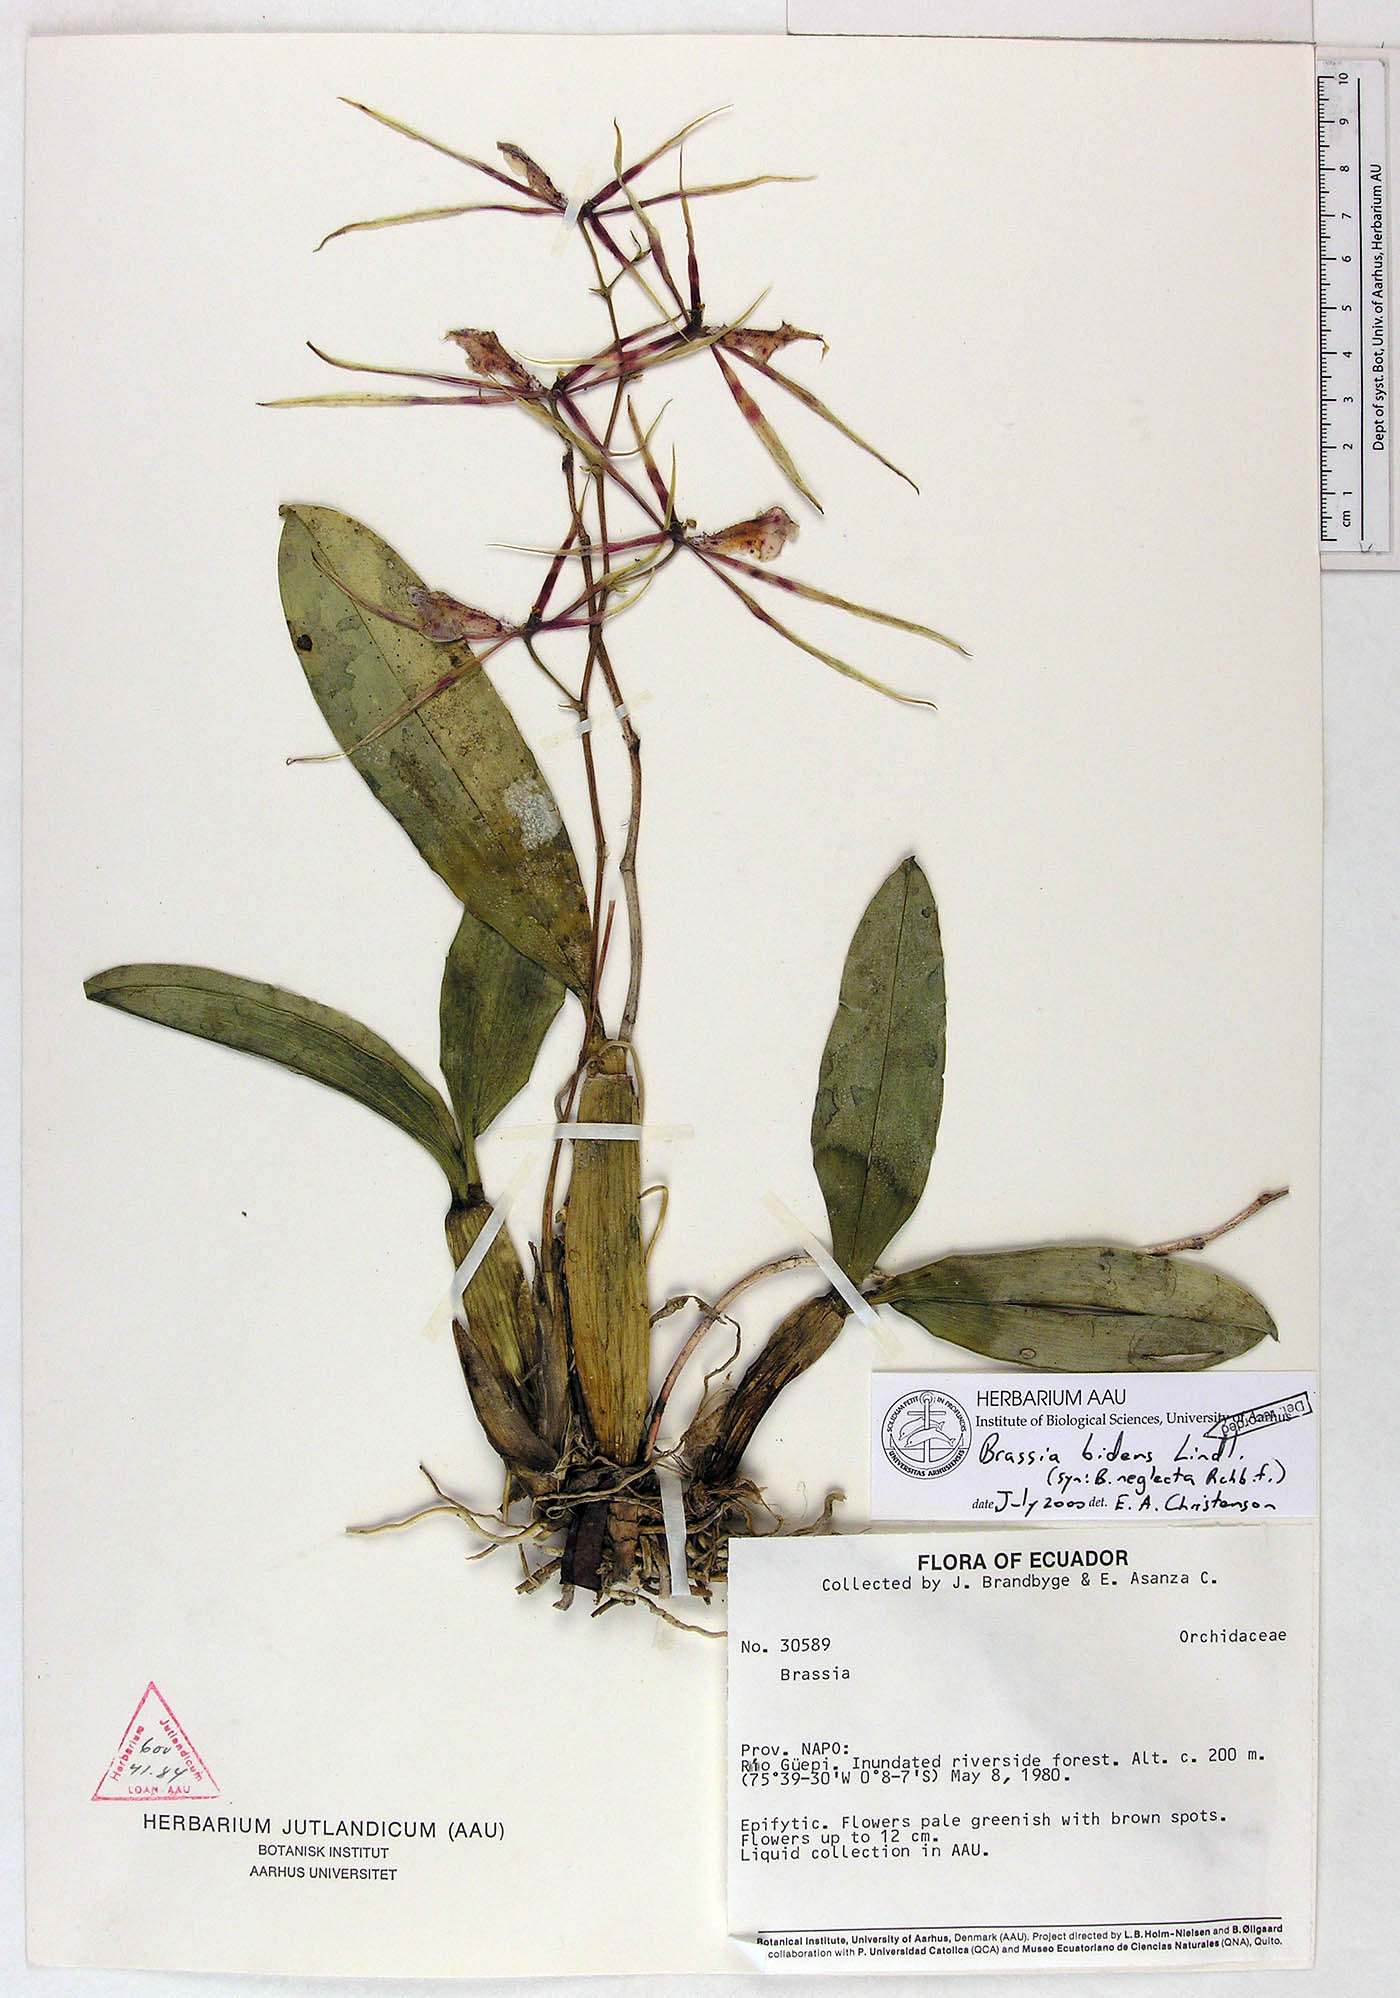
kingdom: Plantae
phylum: Tracheophyta
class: Liliopsida
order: Asparagales
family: Orchidaceae
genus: Brassia
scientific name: Brassia bidens
